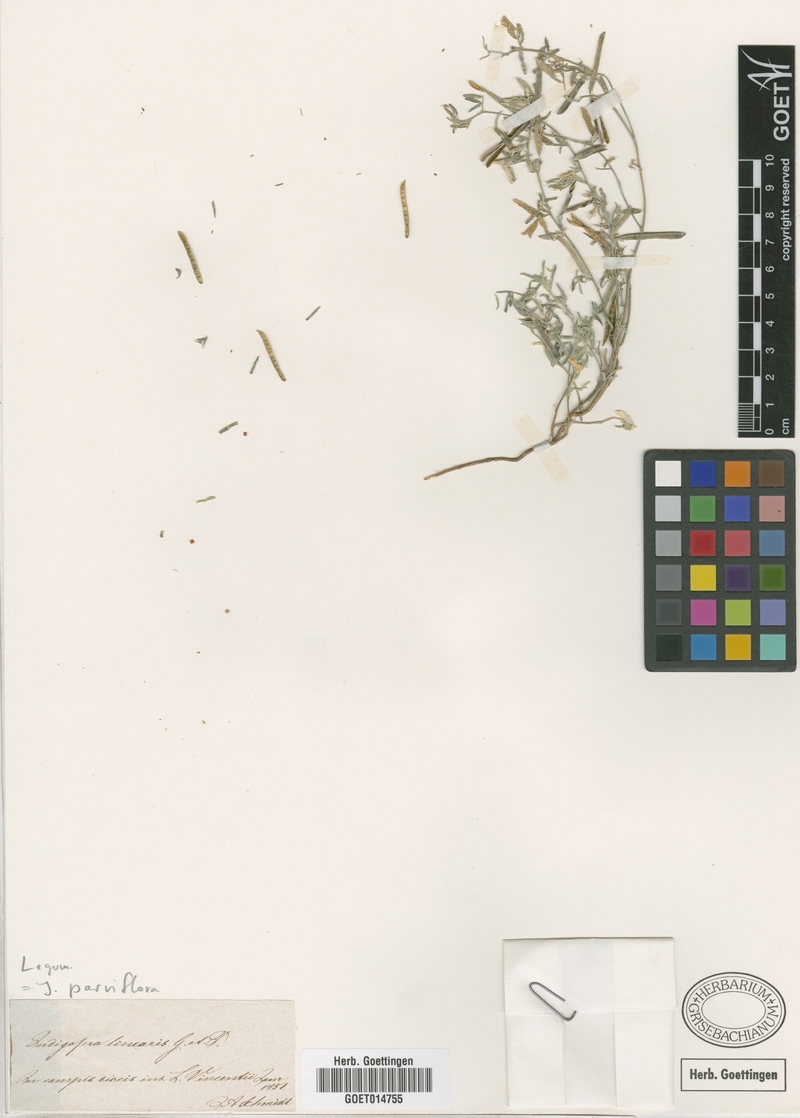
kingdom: Plantae
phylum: Tracheophyta
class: Magnoliopsida
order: Fabales
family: Fabaceae
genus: Indigastrum
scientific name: Indigastrum parviflorum
